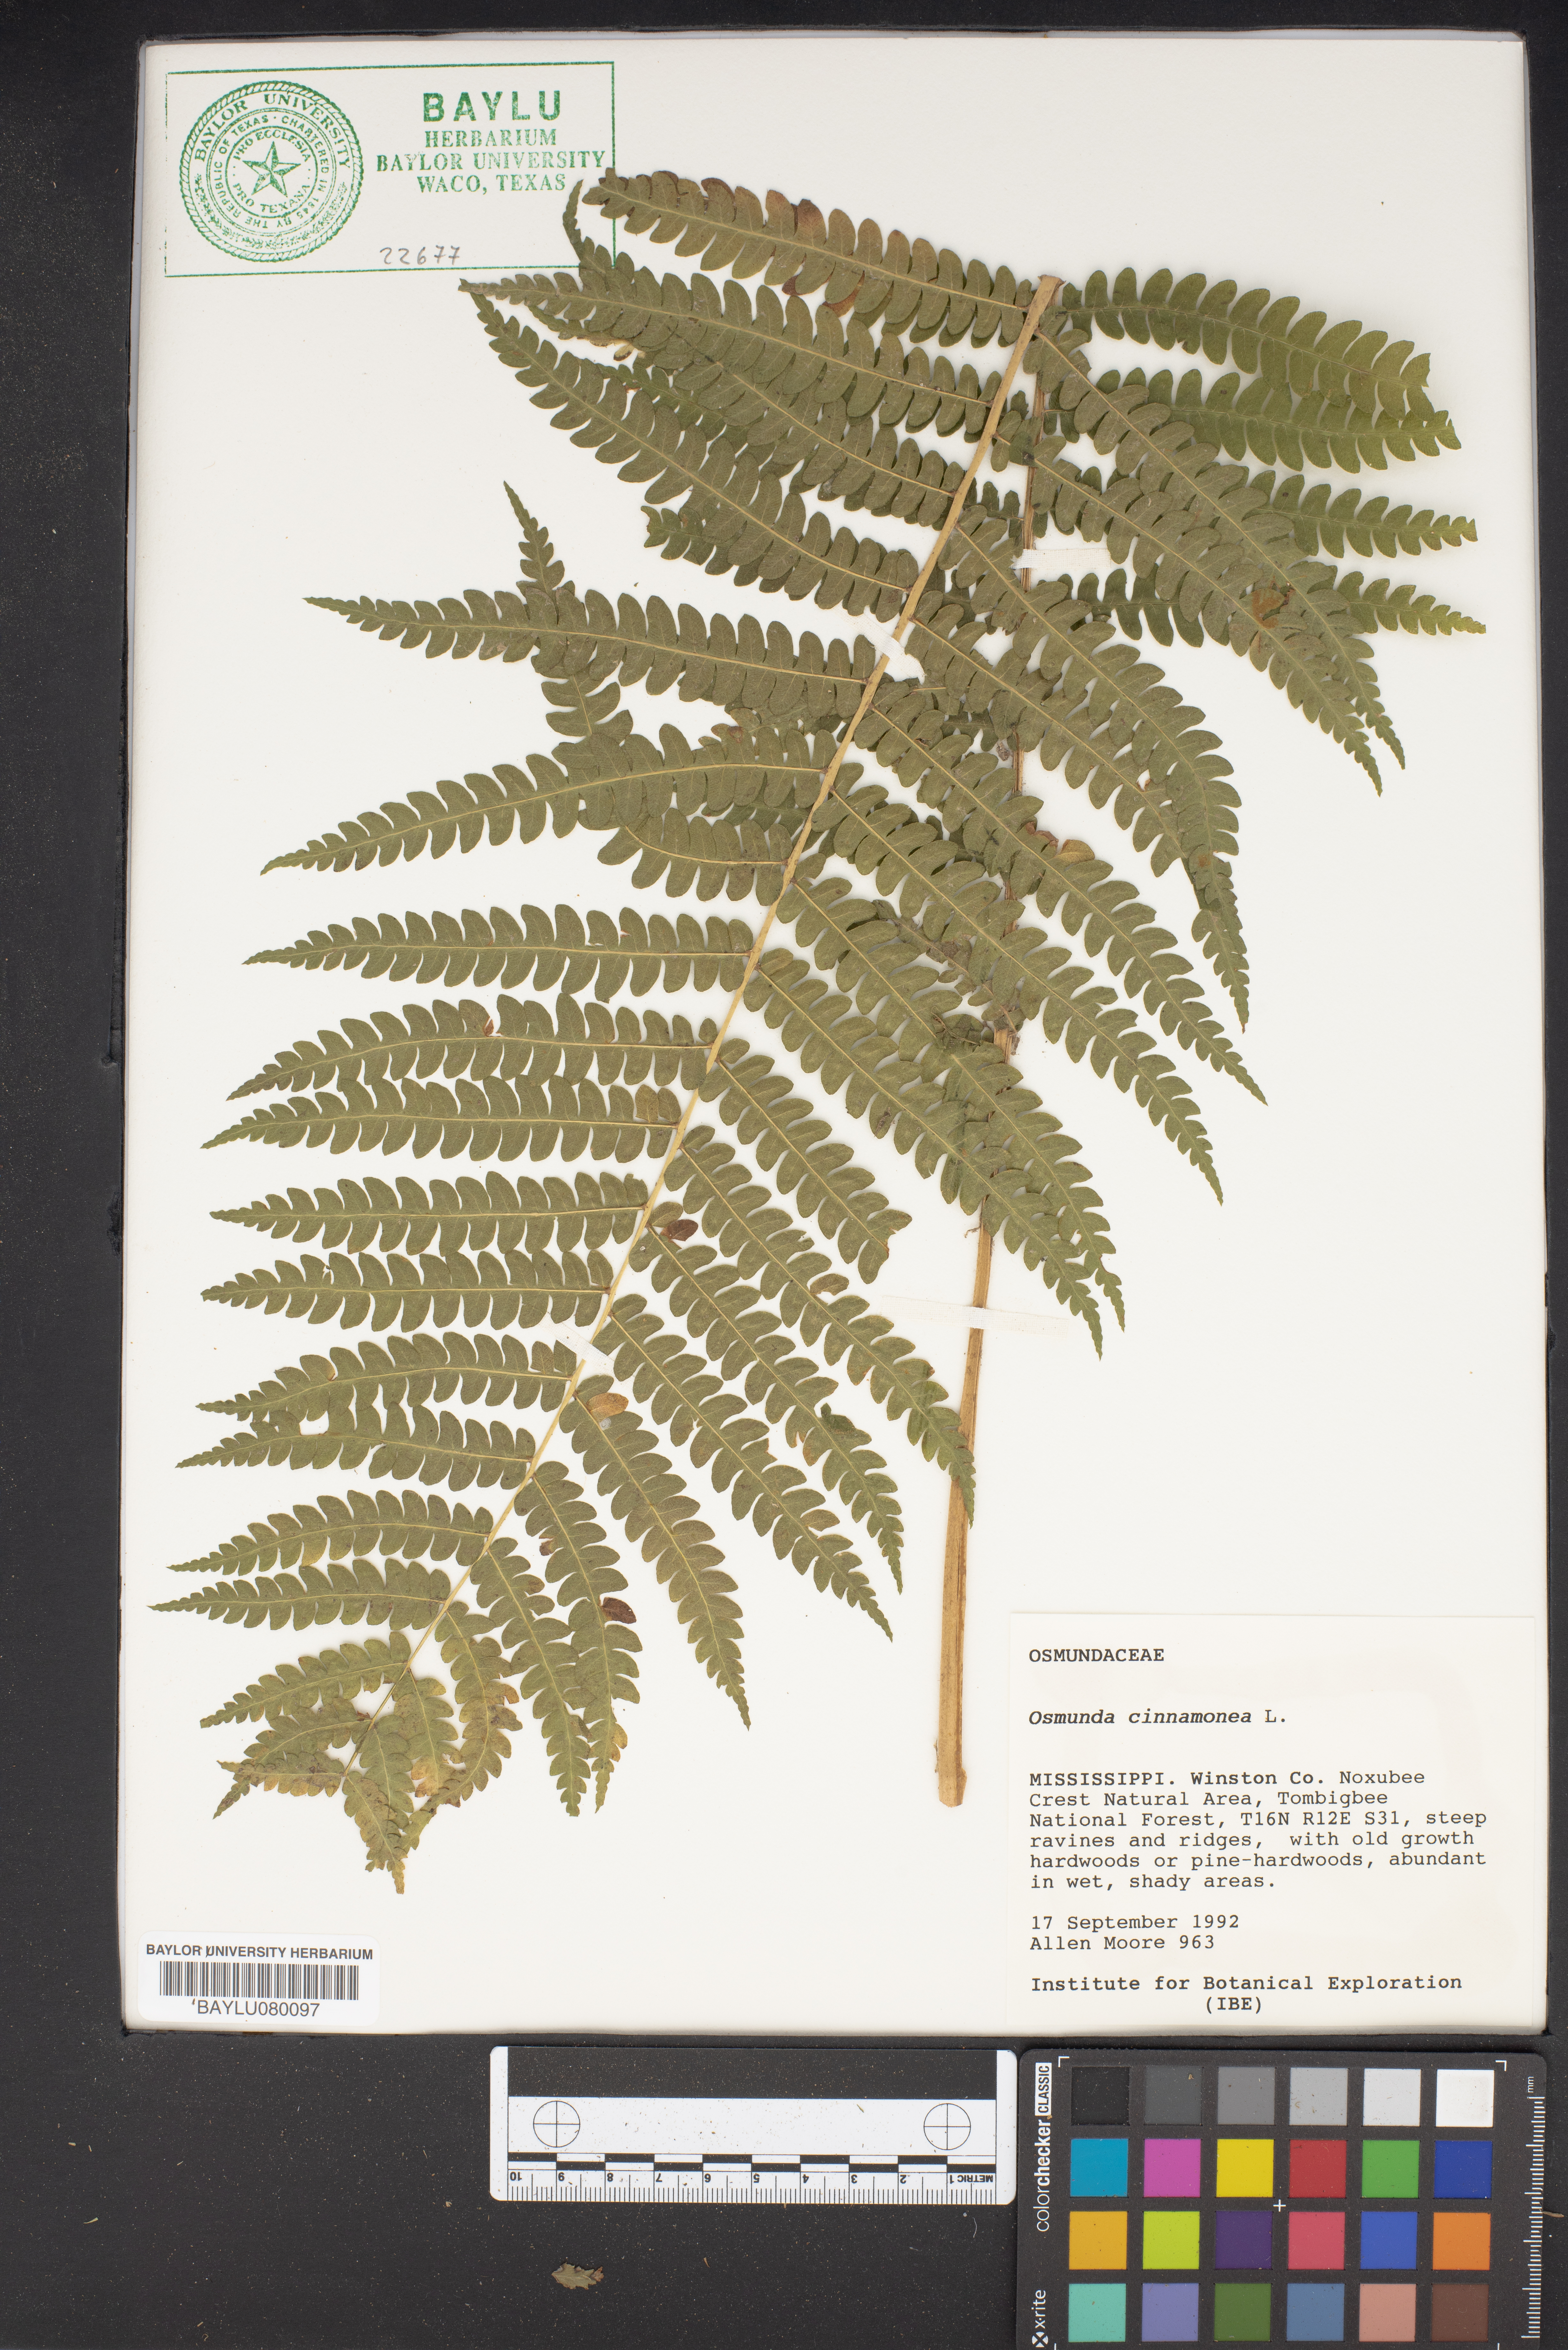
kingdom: Plantae
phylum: Tracheophyta
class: Polypodiopsida
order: Osmundales
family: Osmundaceae
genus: Osmundastrum
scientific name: Osmundastrum cinnamomeum
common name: Cinnamon fern
